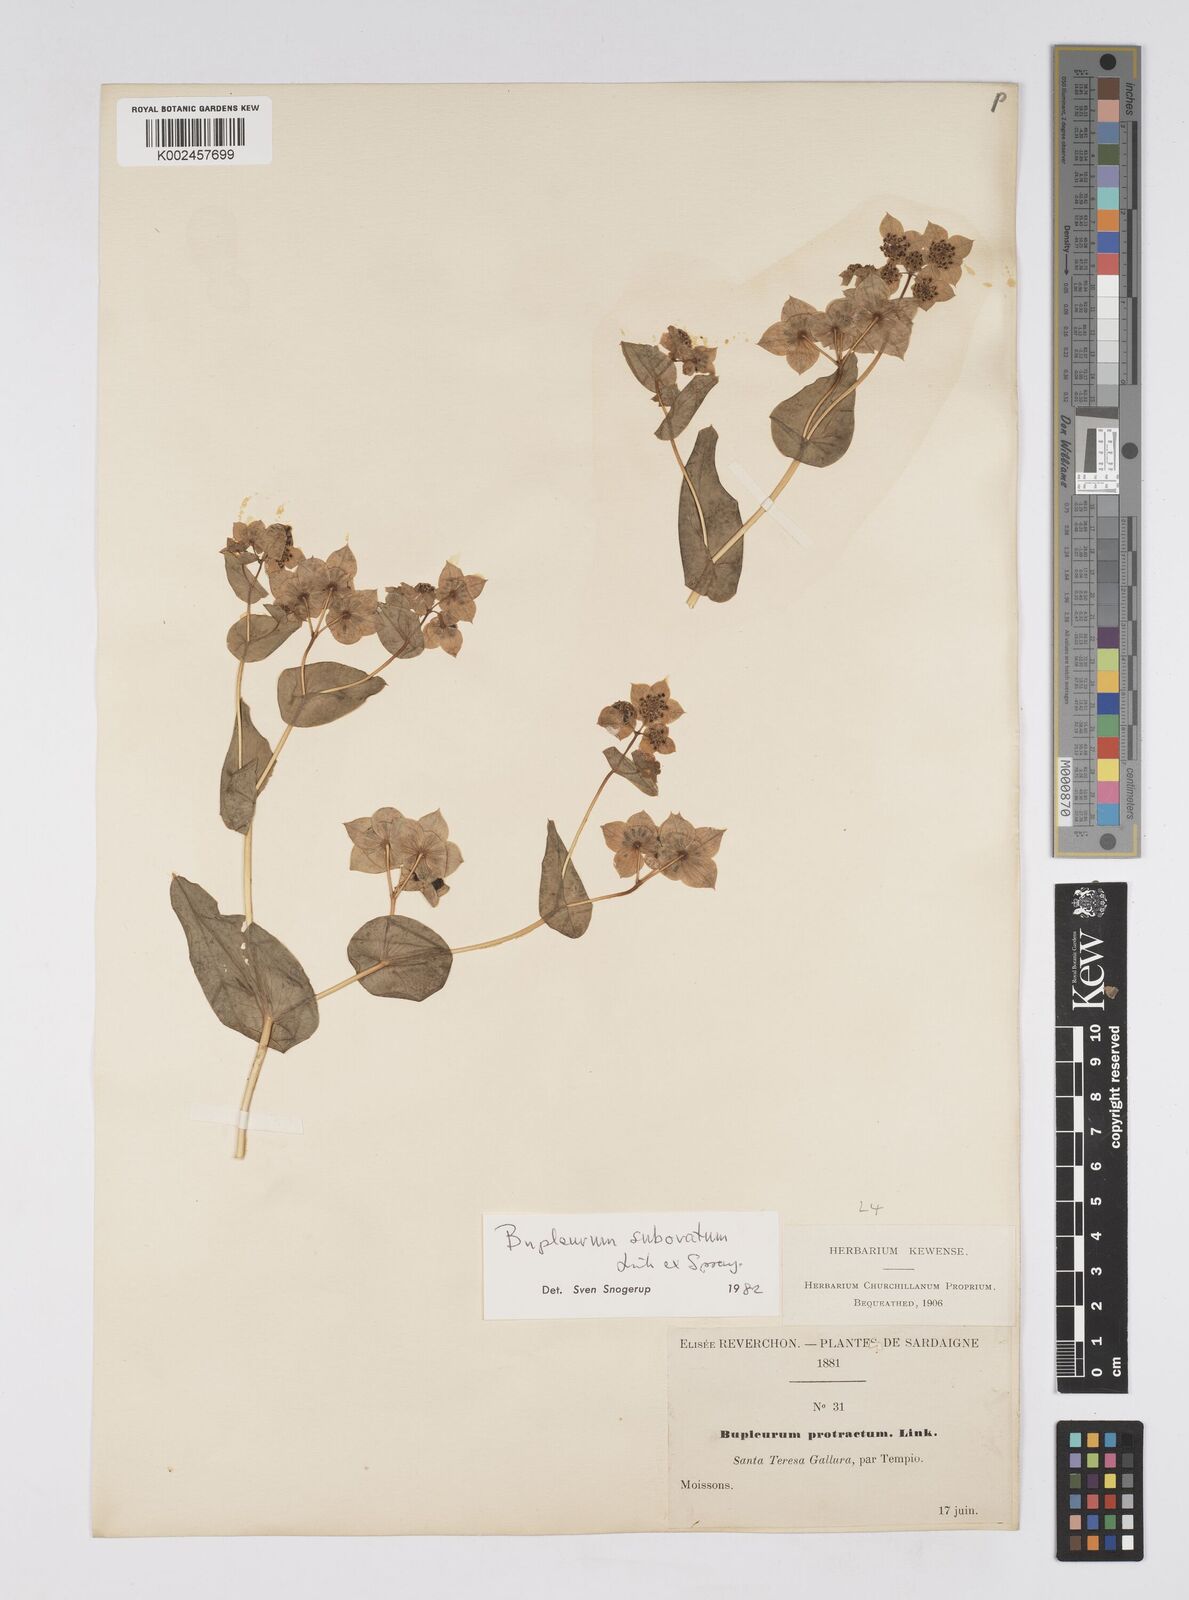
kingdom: Plantae
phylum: Tracheophyta
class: Magnoliopsida
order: Apiales
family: Apiaceae
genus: Bupleurum
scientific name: Bupleurum lancifolium
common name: False thorow-wax
